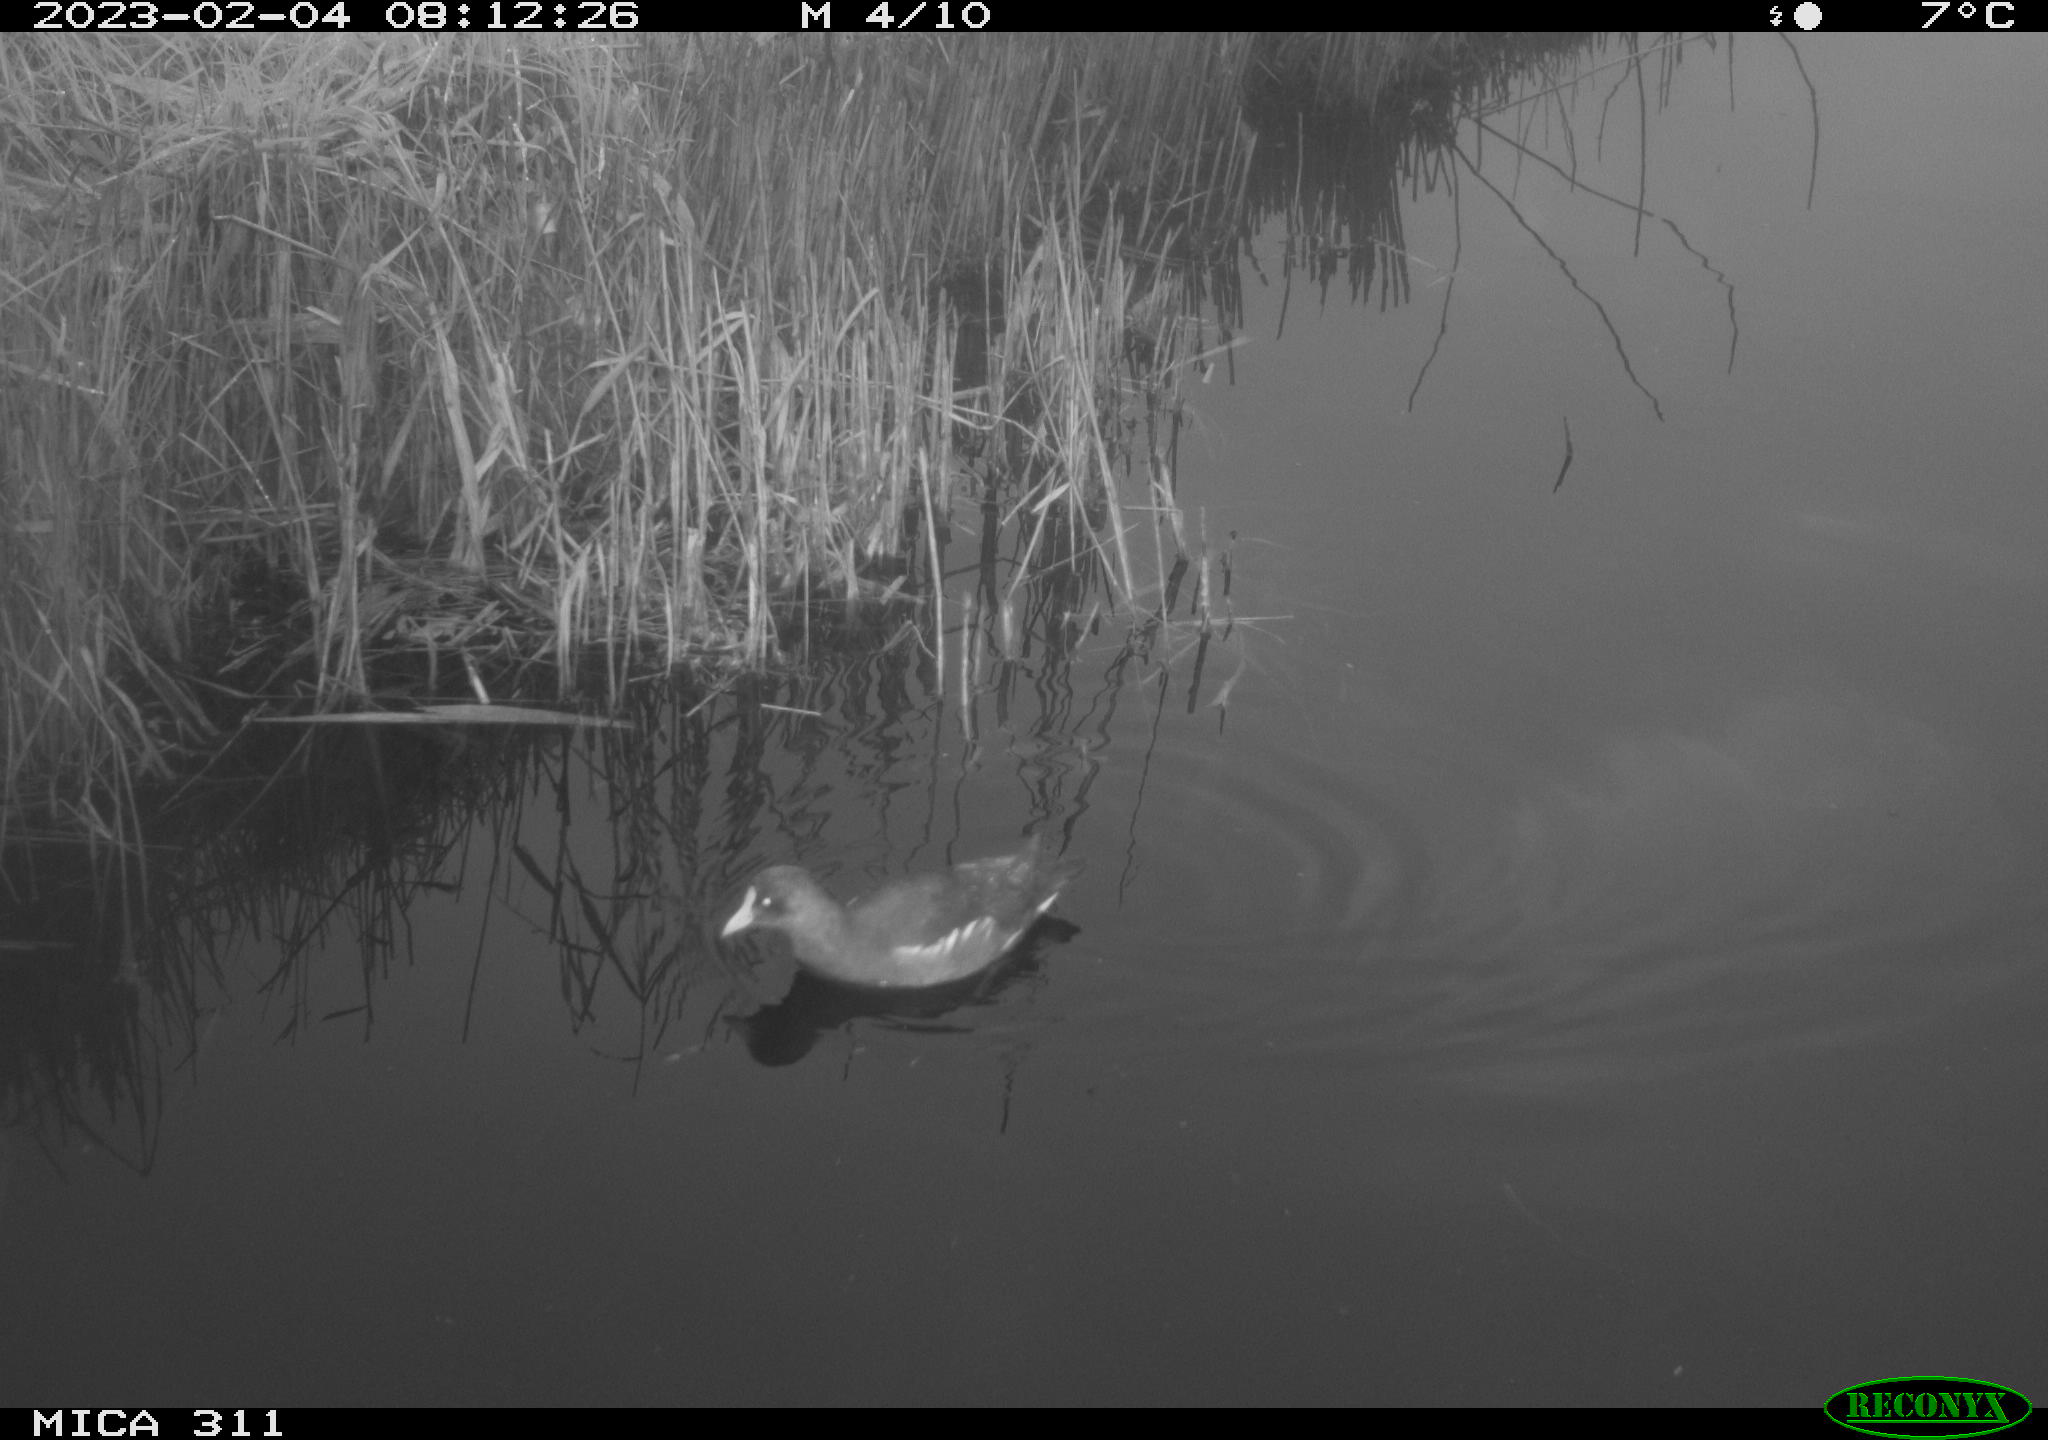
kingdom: Animalia
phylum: Chordata
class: Aves
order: Gruiformes
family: Rallidae
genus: Gallinula
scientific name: Gallinula chloropus
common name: Common moorhen
